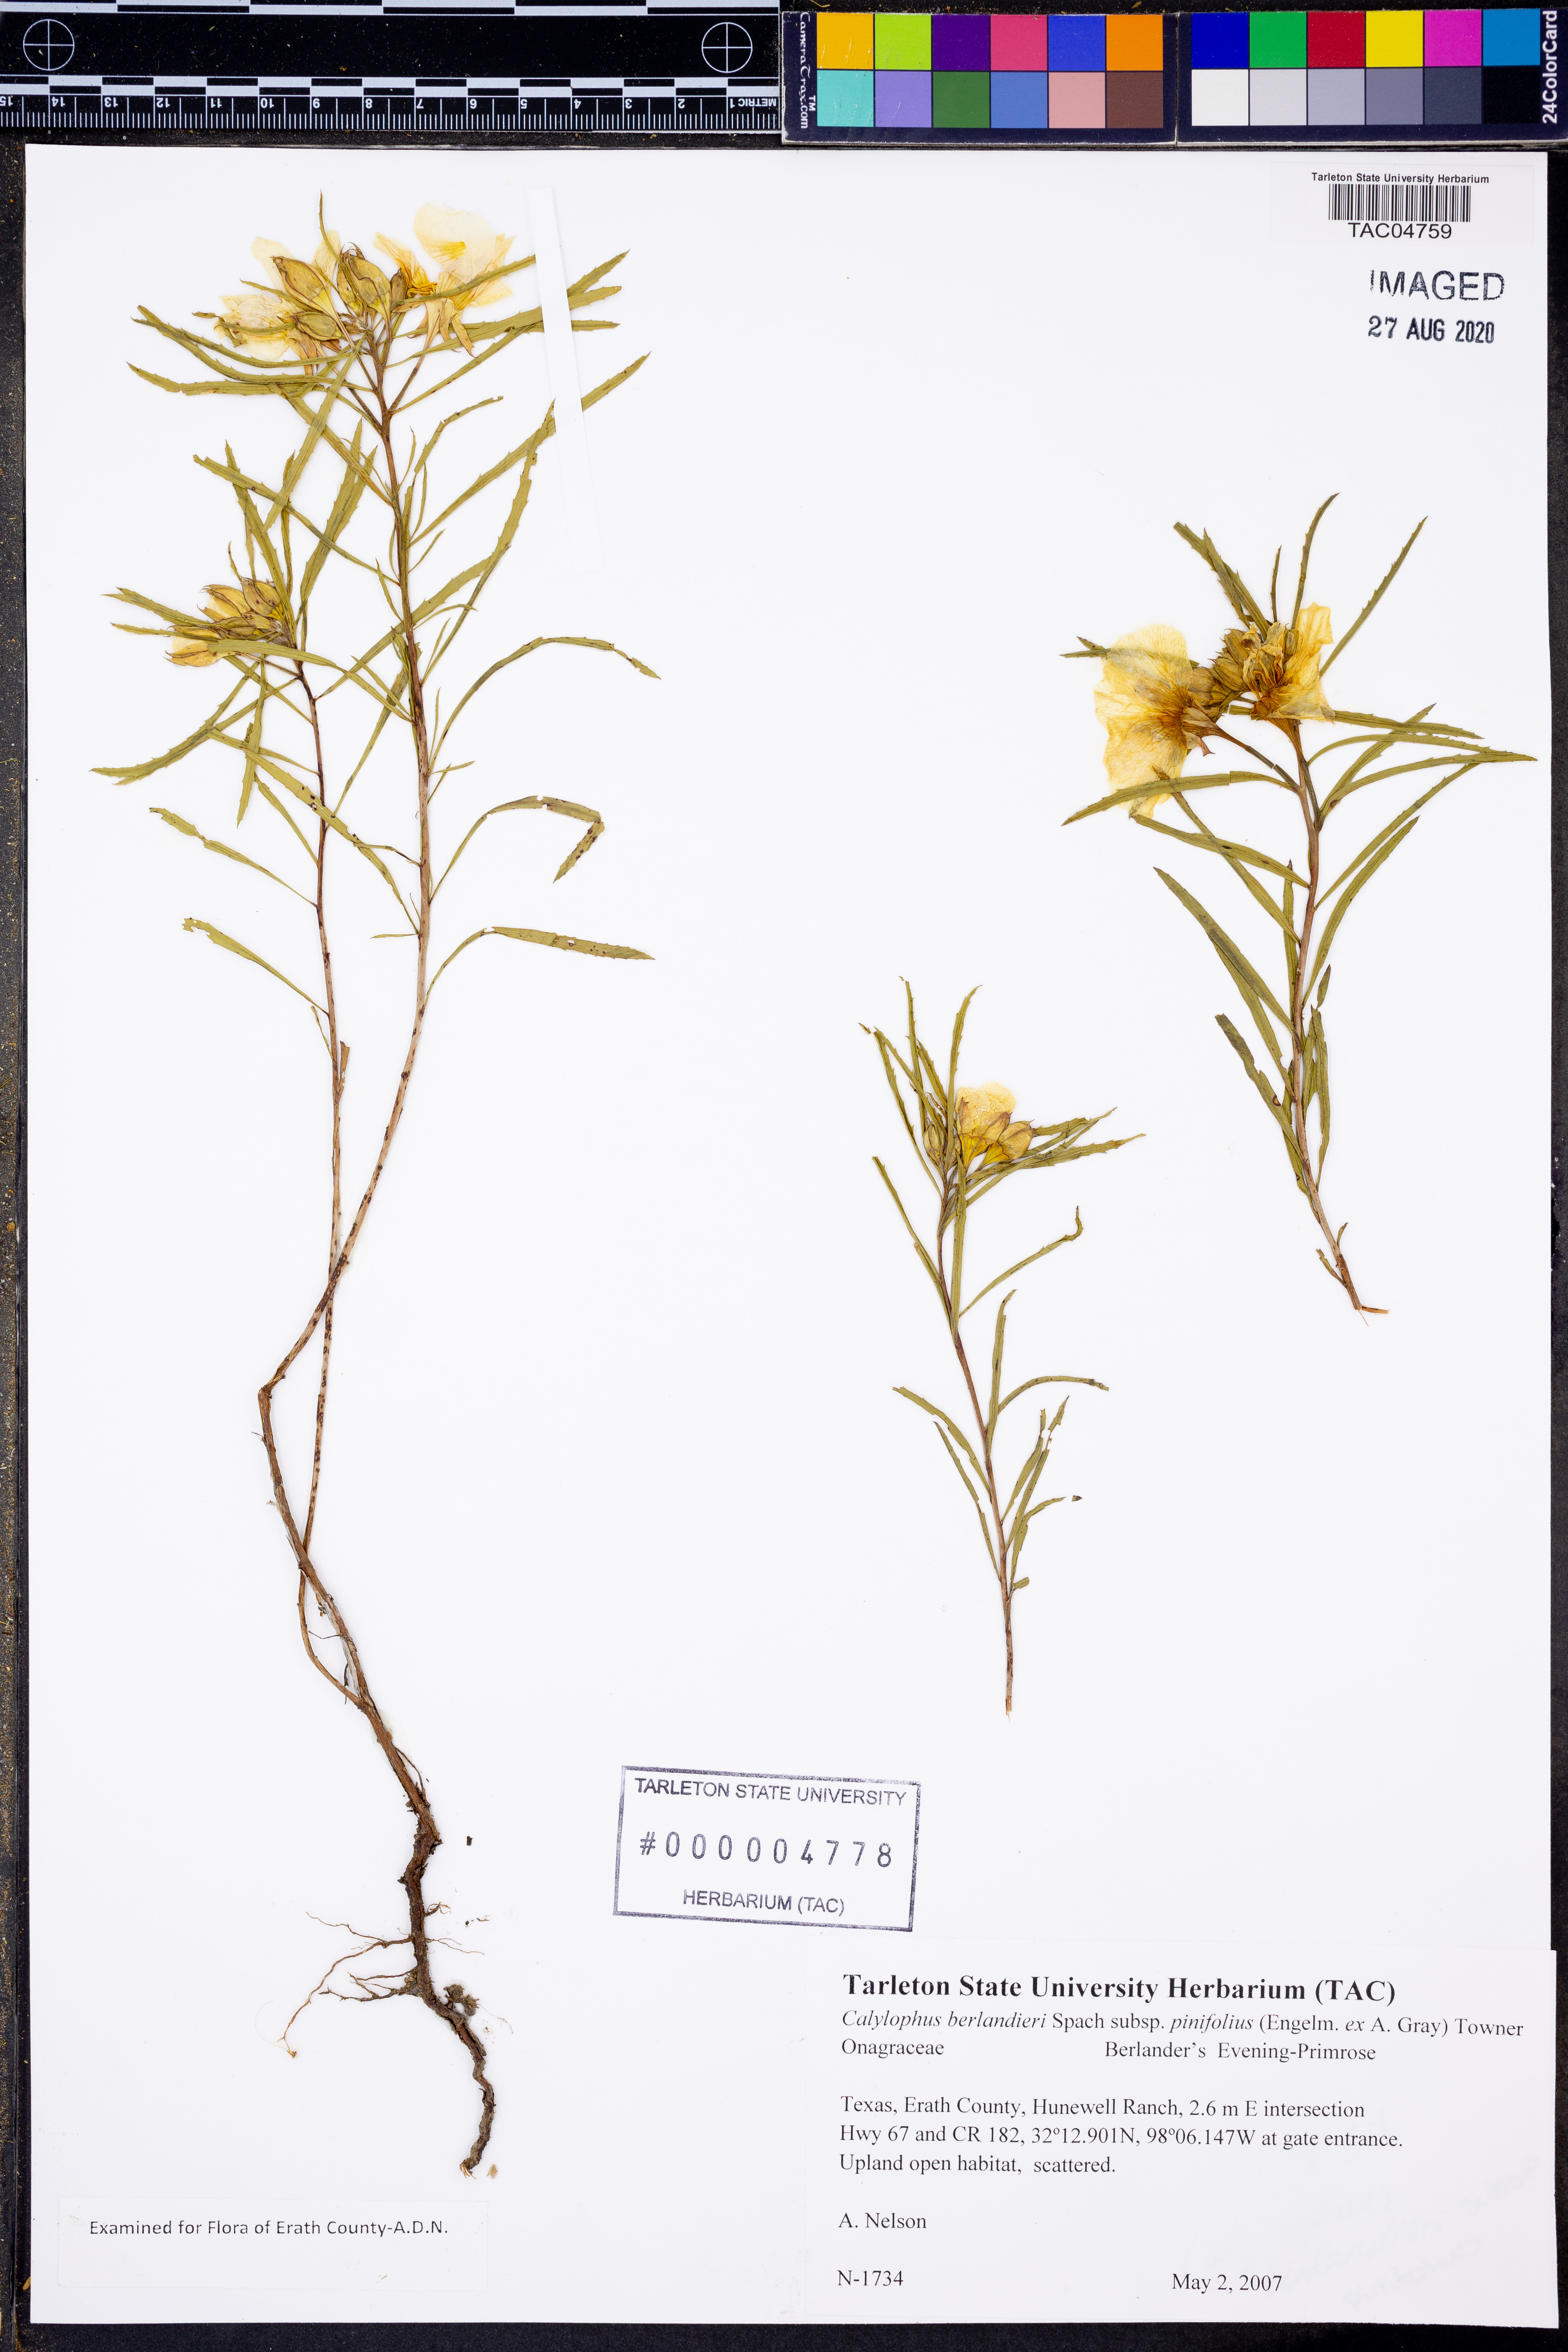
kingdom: Plantae
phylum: Tracheophyta
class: Magnoliopsida
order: Myrtales
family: Onagraceae
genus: Oenothera
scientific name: Oenothera capillifolia
